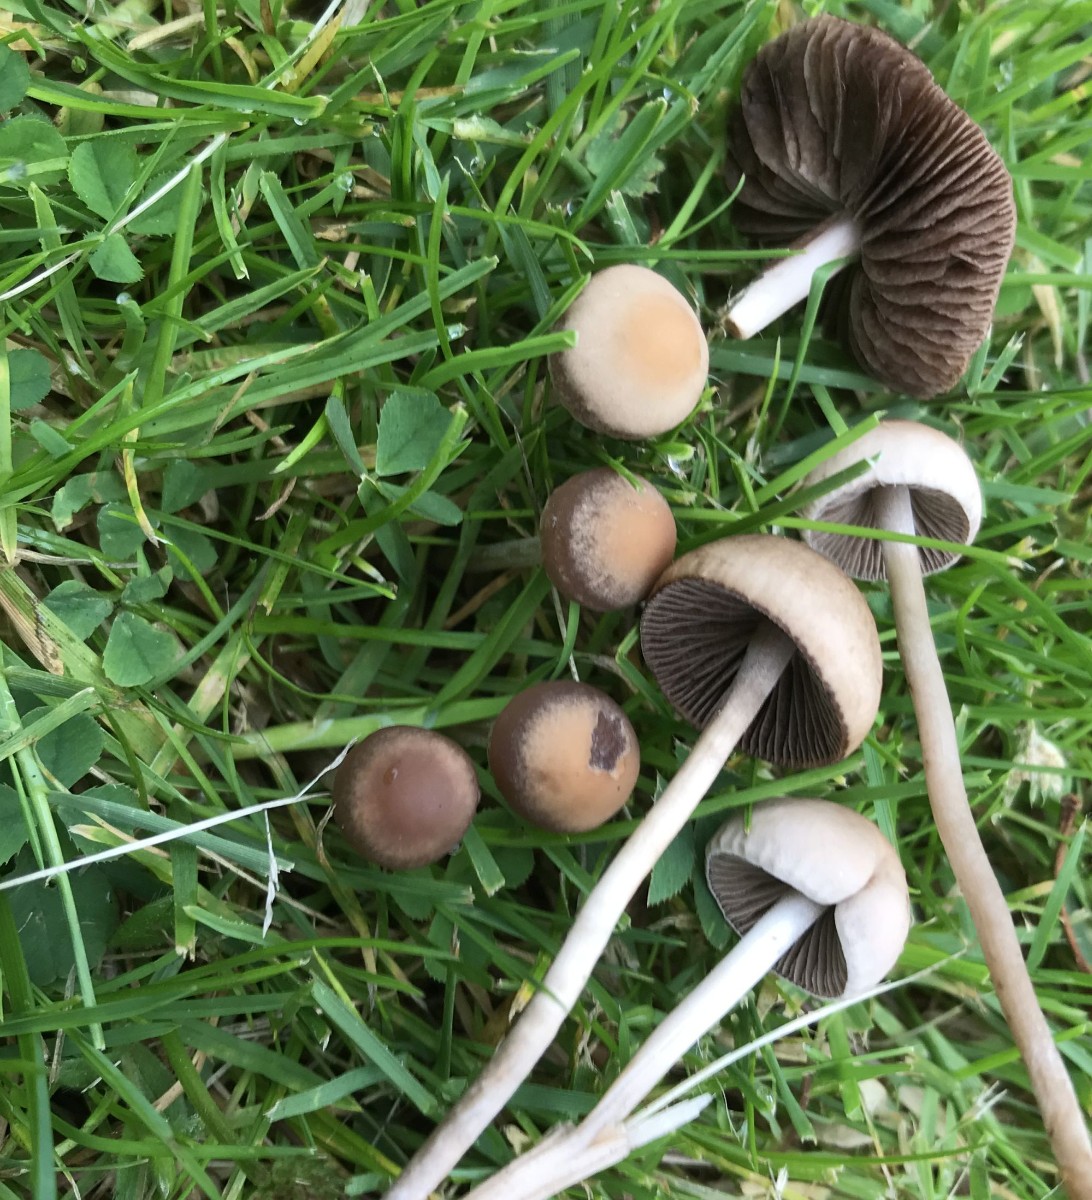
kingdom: Fungi
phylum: Basidiomycota
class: Agaricomycetes
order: Agaricales
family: Bolbitiaceae
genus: Panaeolina
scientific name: Panaeolina foenisecii
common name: høslætsvamp
